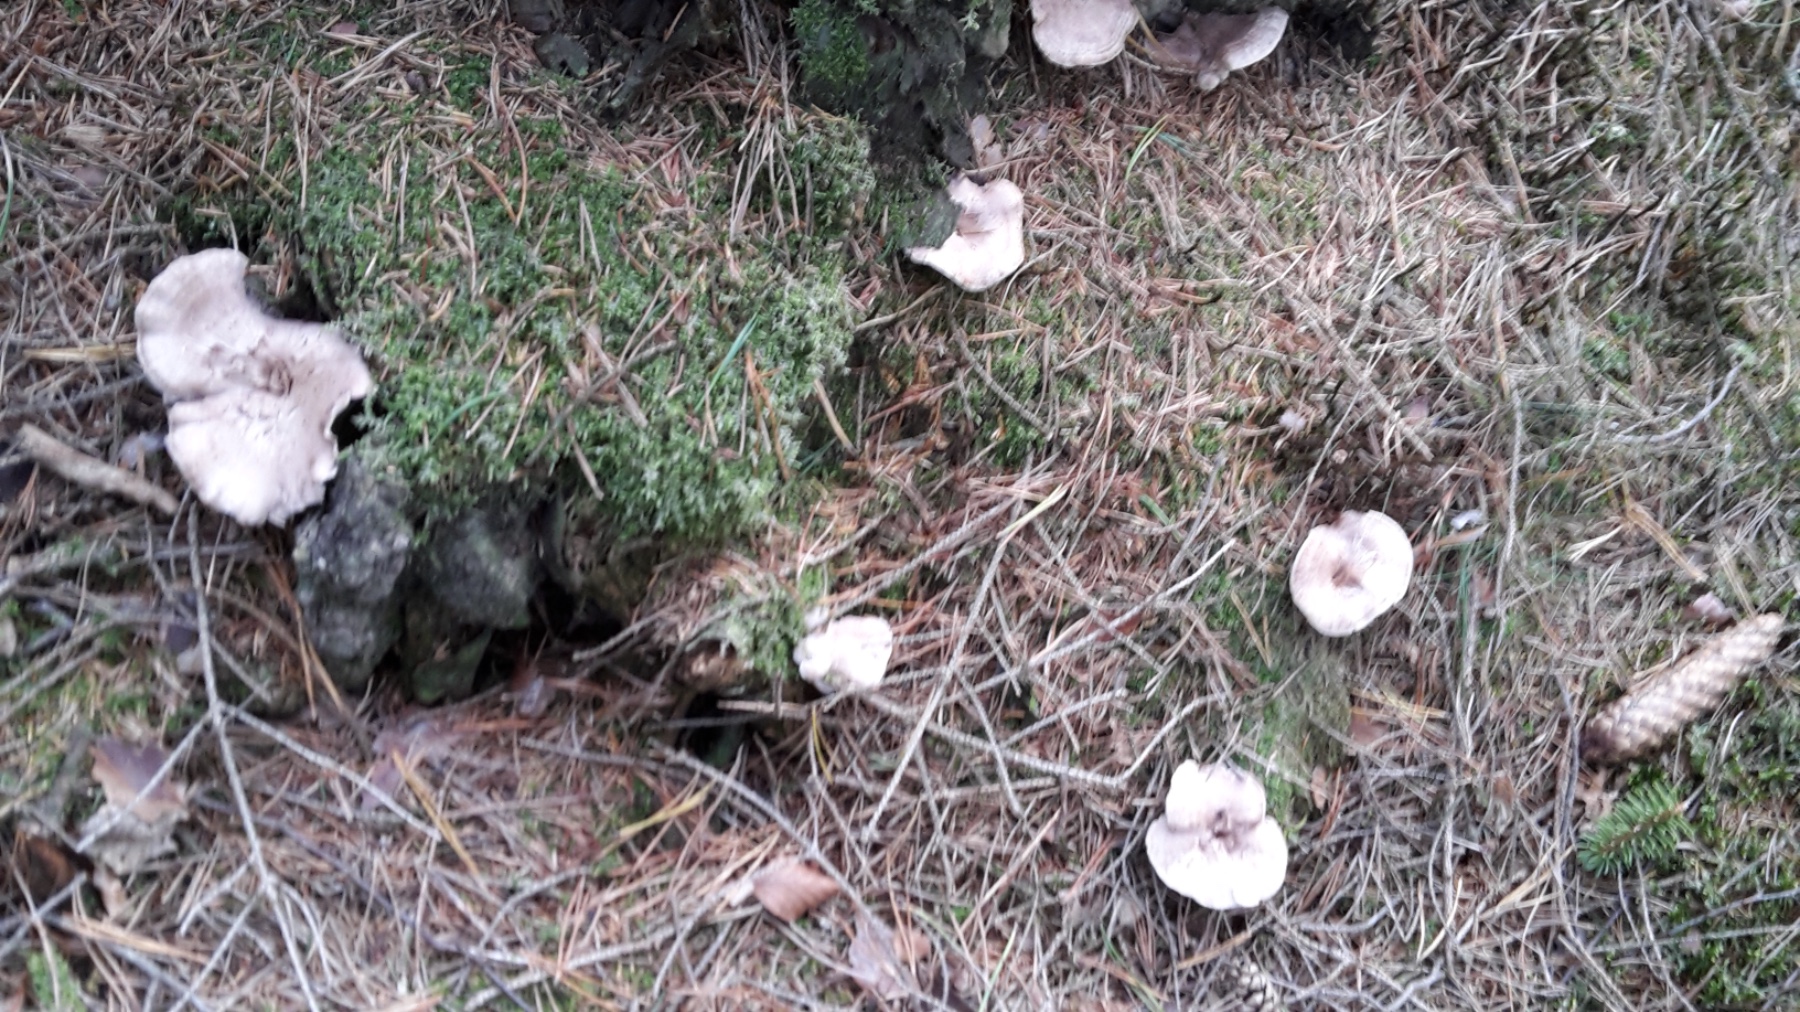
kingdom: Fungi
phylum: Basidiomycota
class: Agaricomycetes
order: Thelephorales
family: Thelephoraceae
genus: Phellodon
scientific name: Phellodon violascens
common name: violetbrun duftpigsvamp
